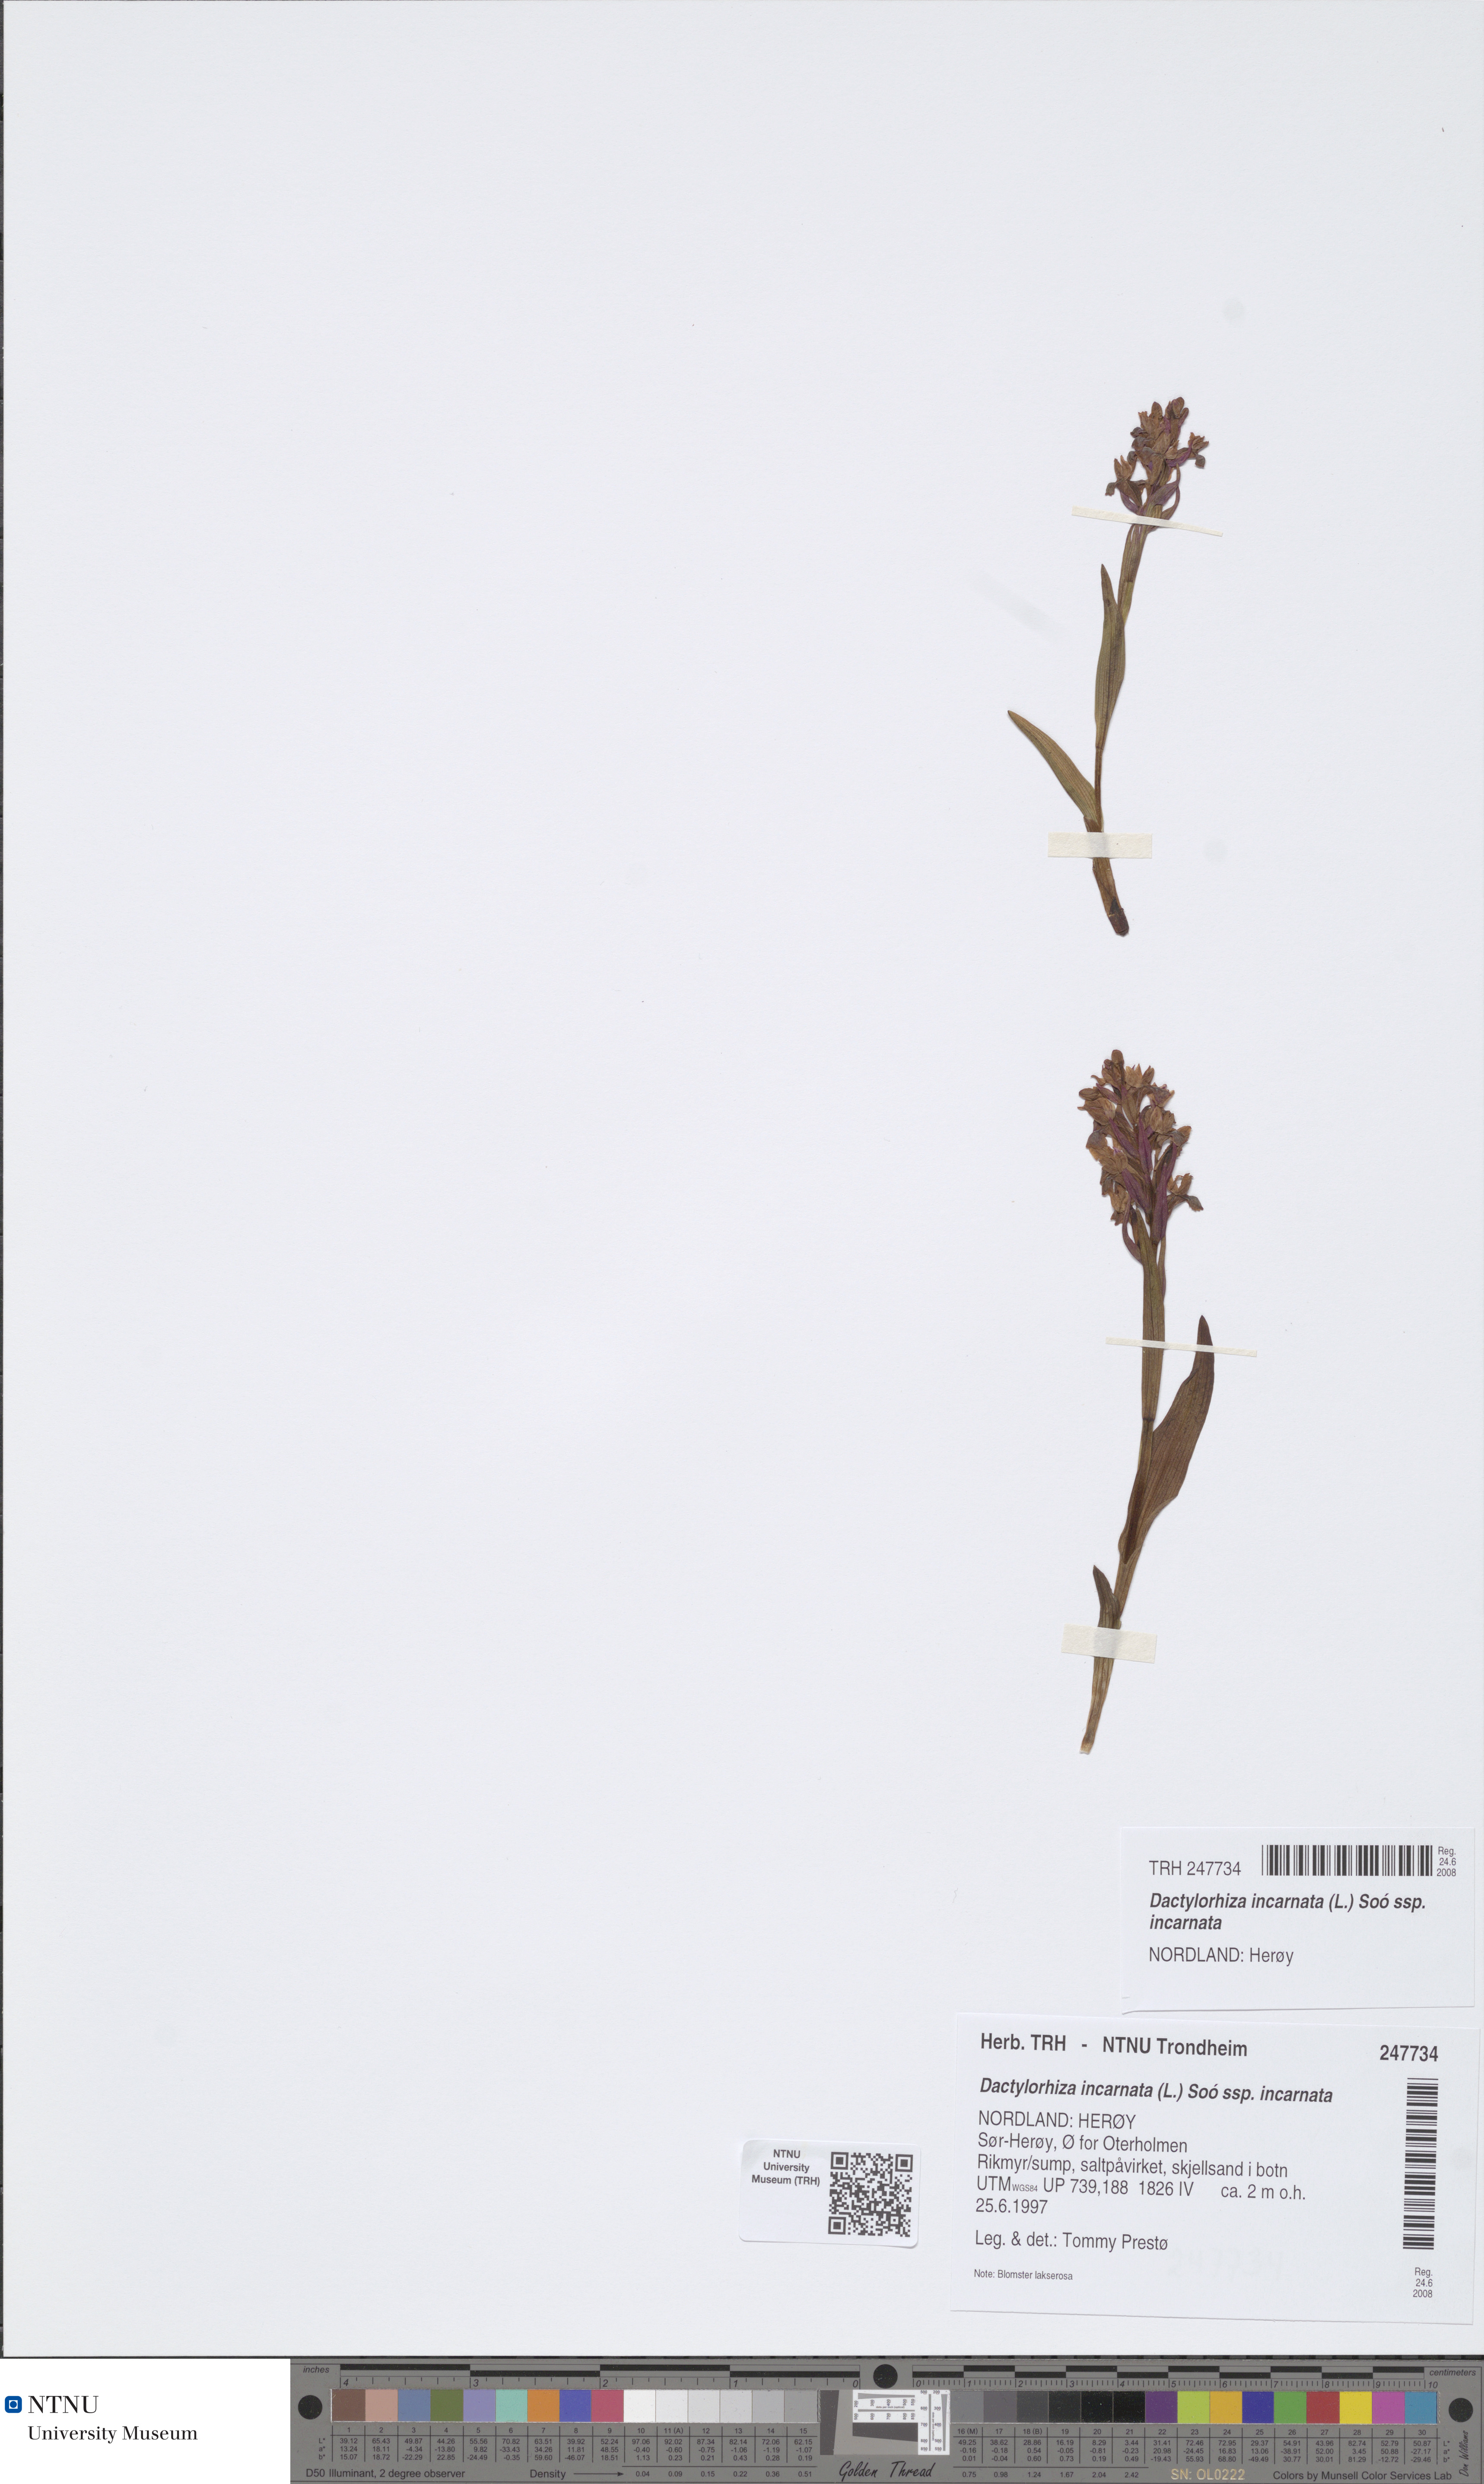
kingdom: Plantae
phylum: Tracheophyta
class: Liliopsida
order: Asparagales
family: Orchidaceae
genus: Dactylorhiza
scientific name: Dactylorhiza incarnata
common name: Early marsh-orchid
